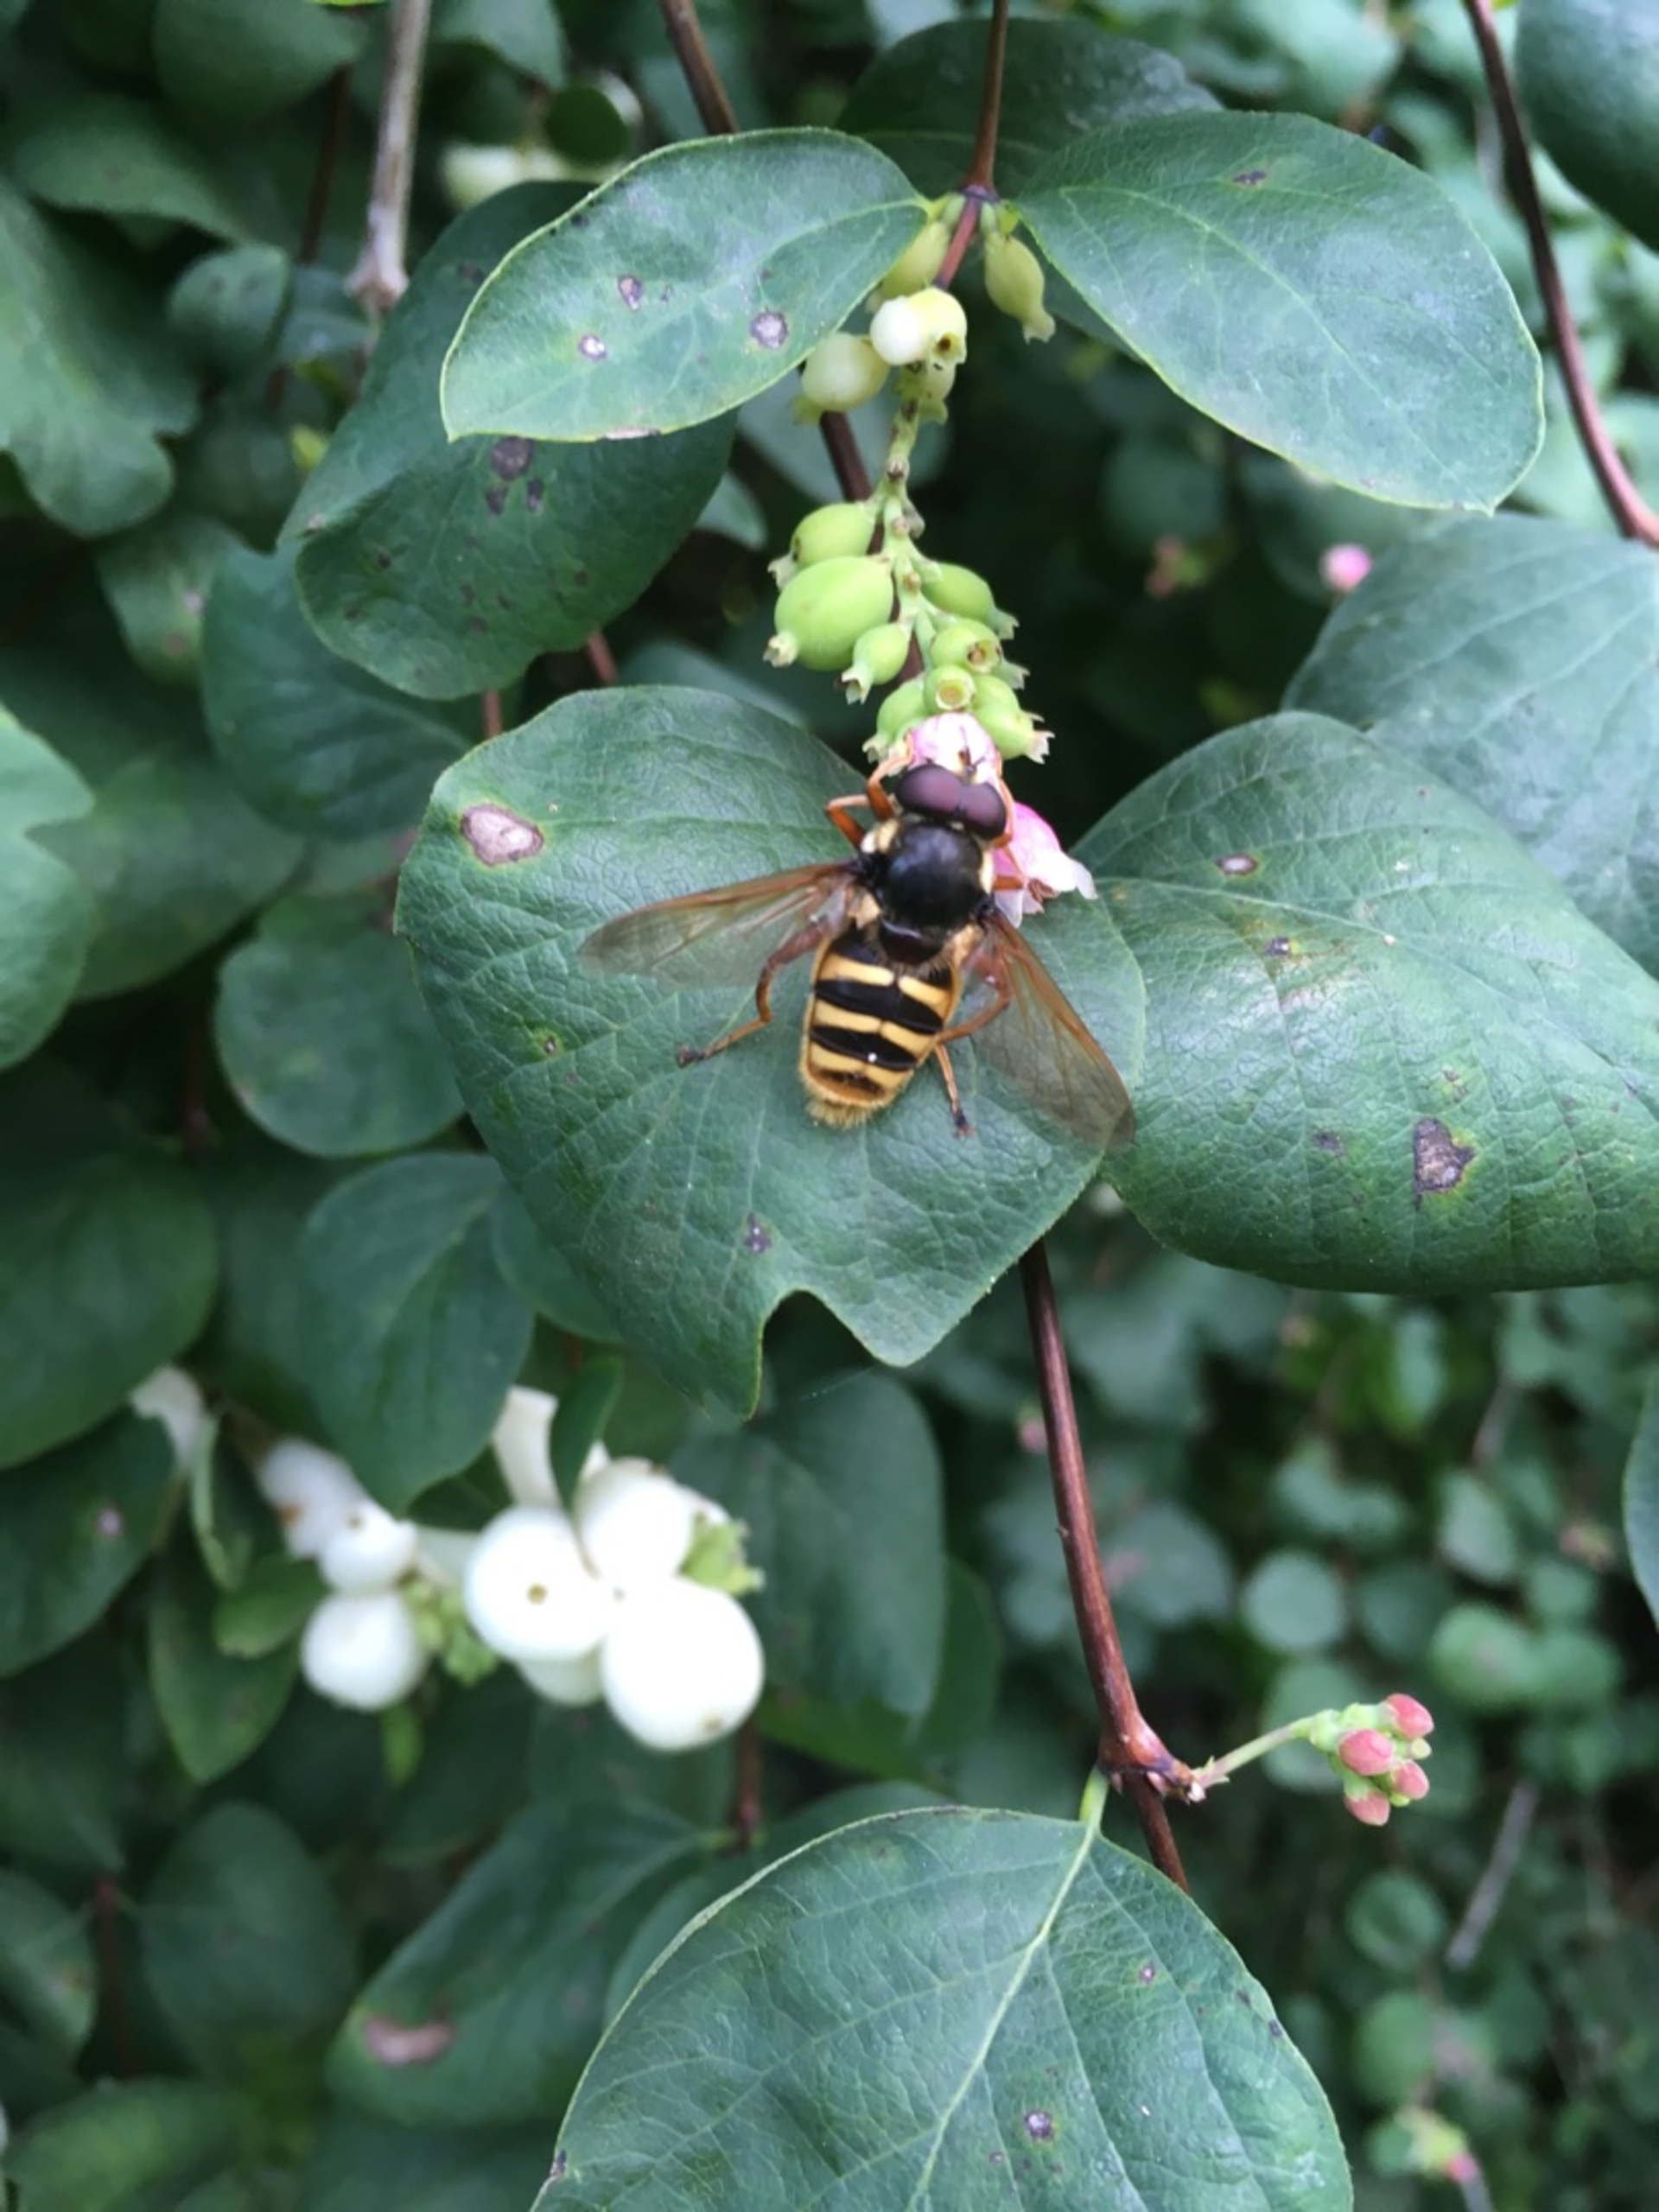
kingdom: Animalia
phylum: Arthropoda
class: Insecta
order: Diptera
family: Syrphidae
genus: Sericomyia
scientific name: Sericomyia silentis
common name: Tørve-silkesvirreflue
